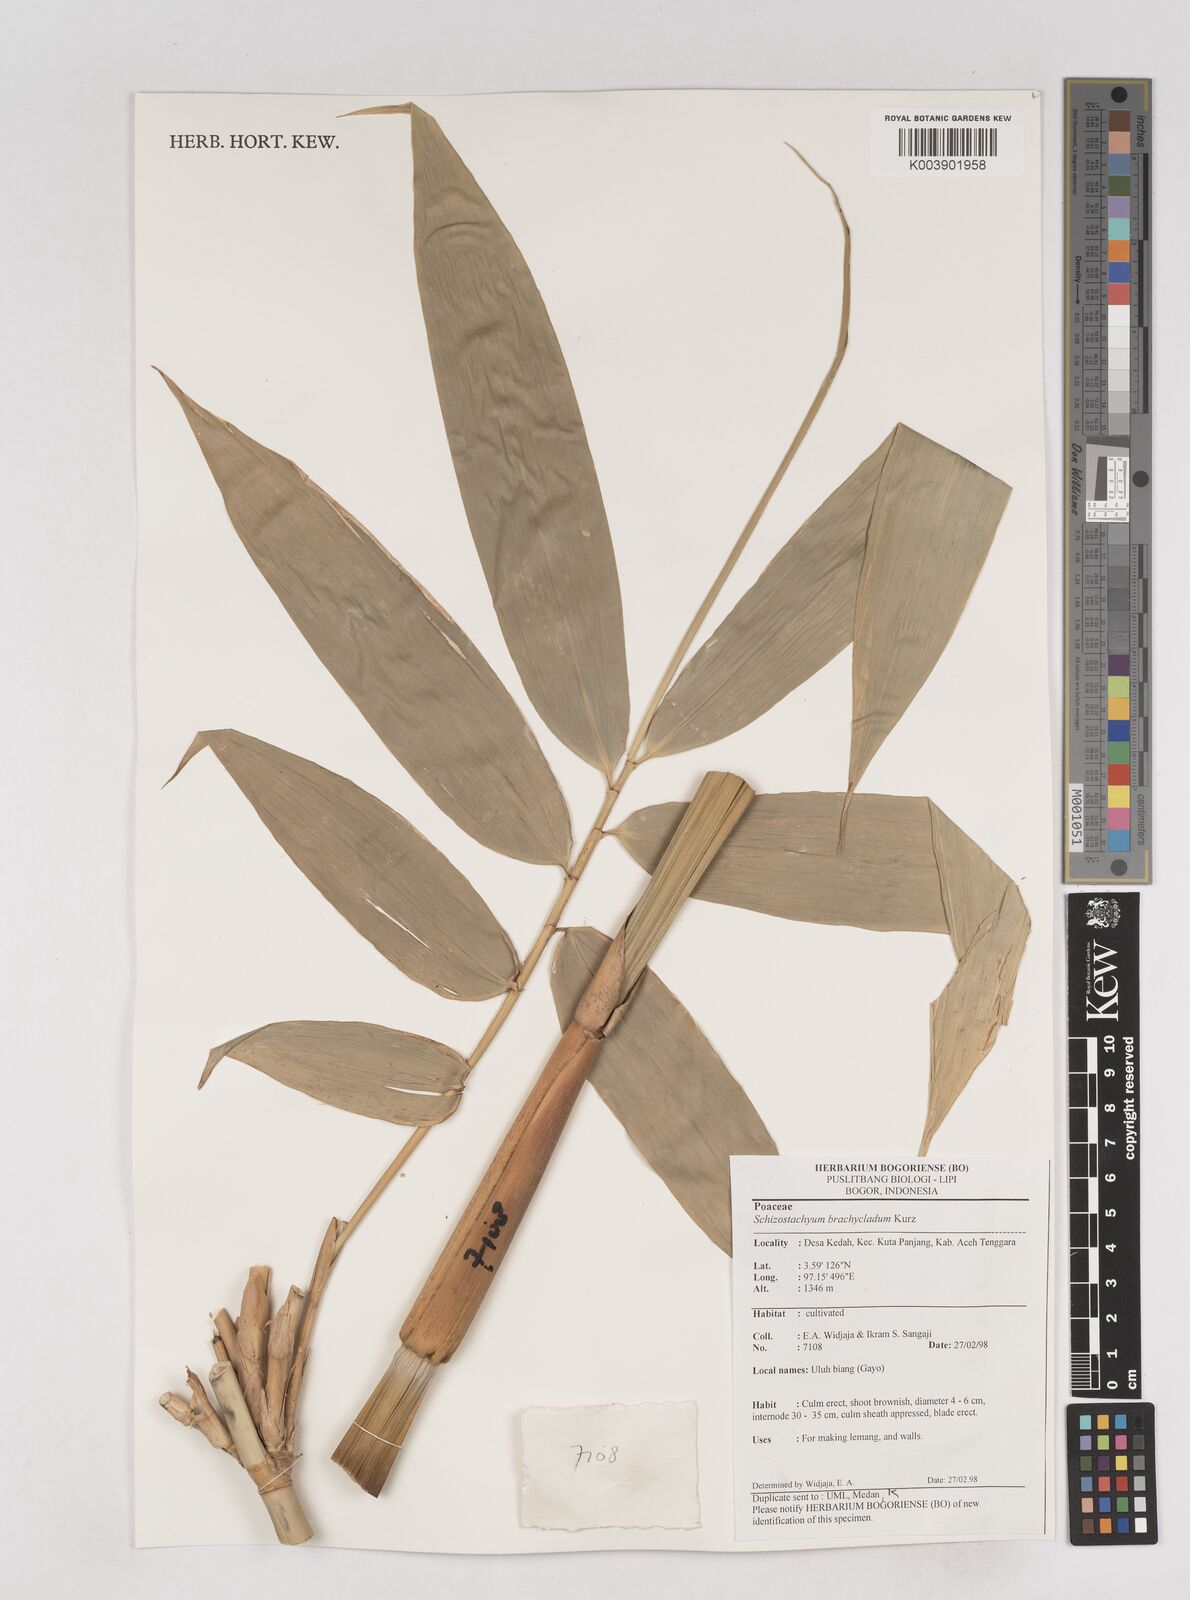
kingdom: Plantae
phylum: Tracheophyta
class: Liliopsida
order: Poales
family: Poaceae
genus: Schizostachyum
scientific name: Schizostachyum brachycladum
